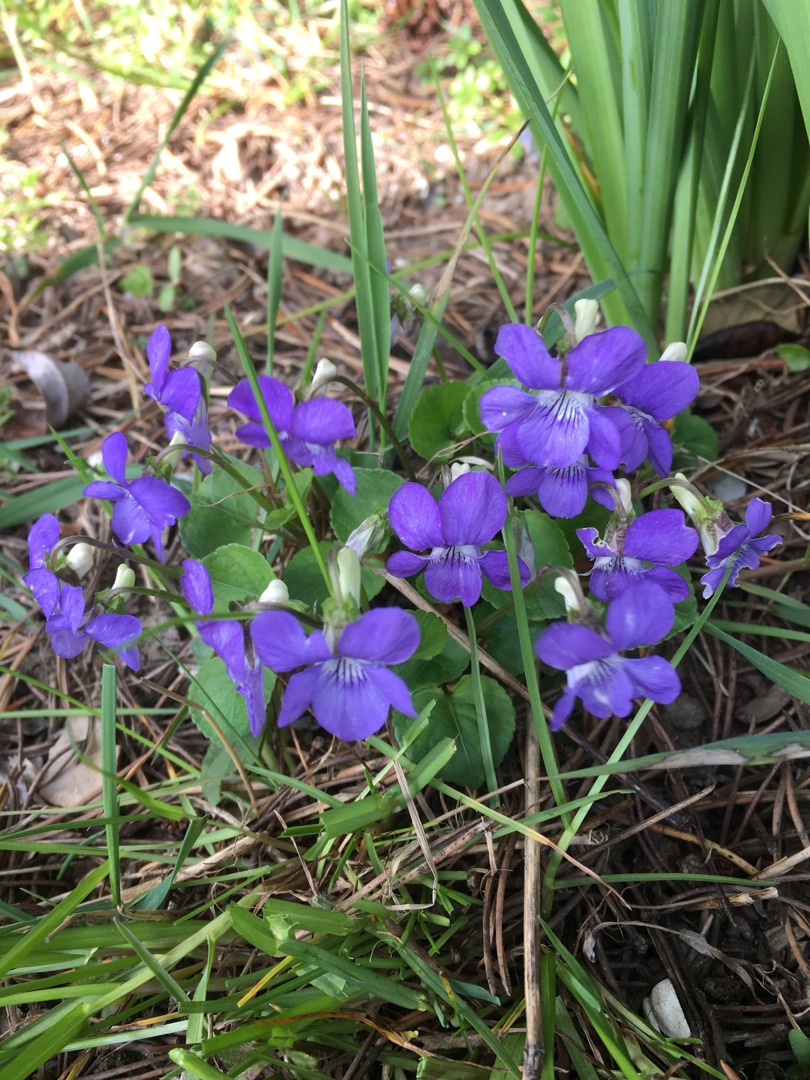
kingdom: Plantae
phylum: Tracheophyta
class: Magnoliopsida
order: Malpighiales
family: Violaceae
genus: Viola
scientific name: Viola riviniana
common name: Krat-viol
